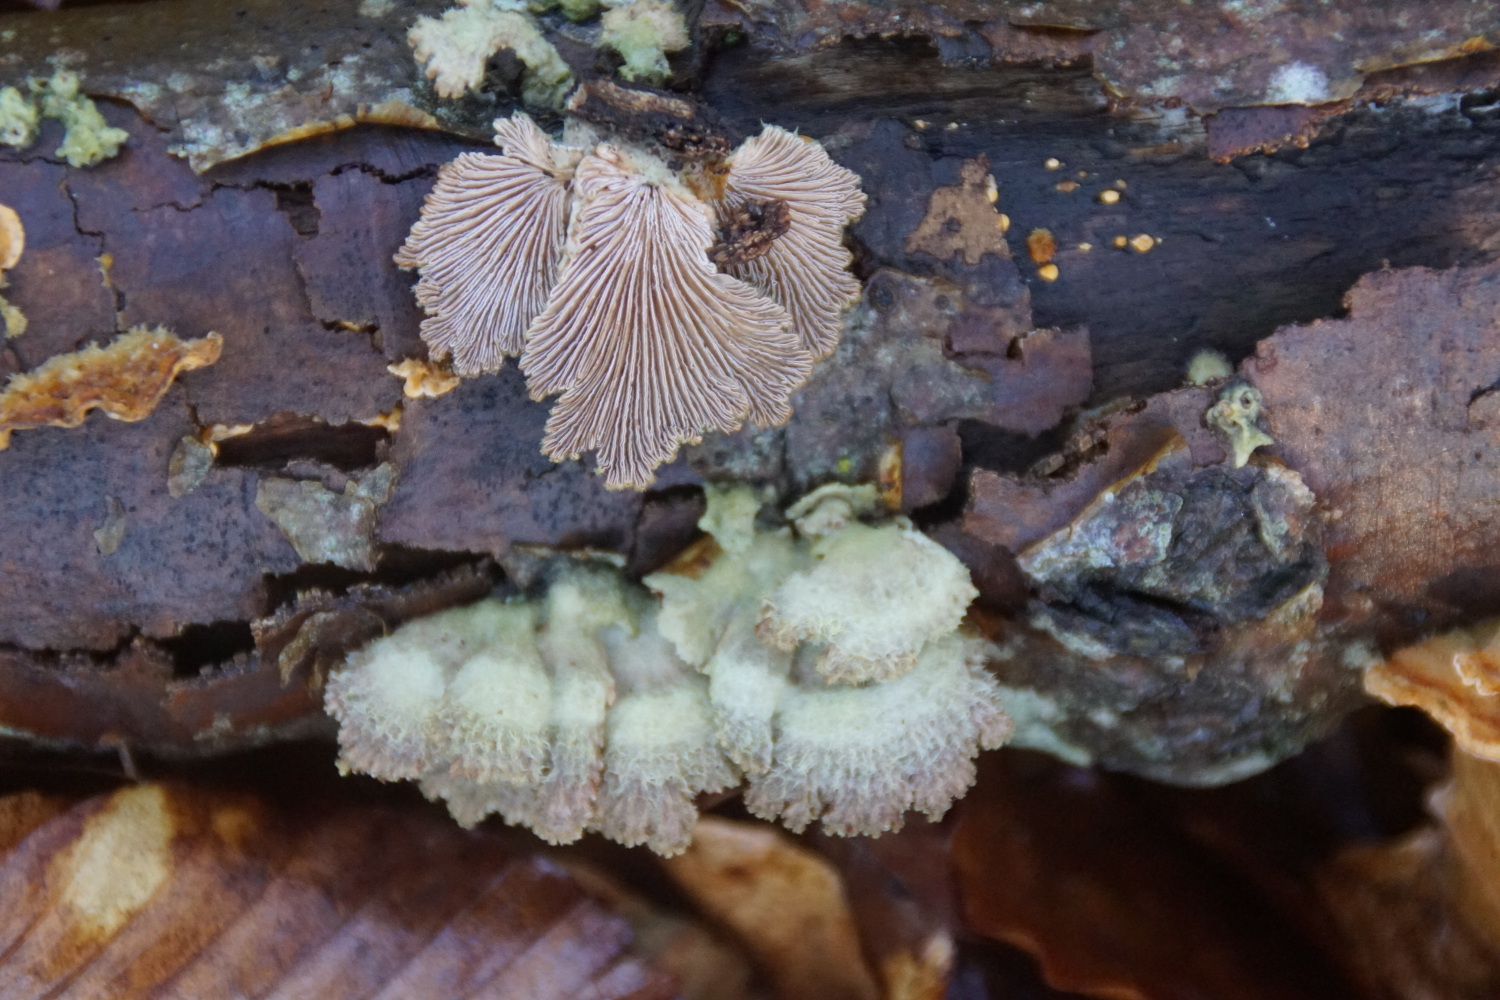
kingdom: Fungi
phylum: Basidiomycota
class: Agaricomycetes
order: Agaricales
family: Schizophyllaceae
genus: Schizophyllum
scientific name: Schizophyllum commune
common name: kløvblad
